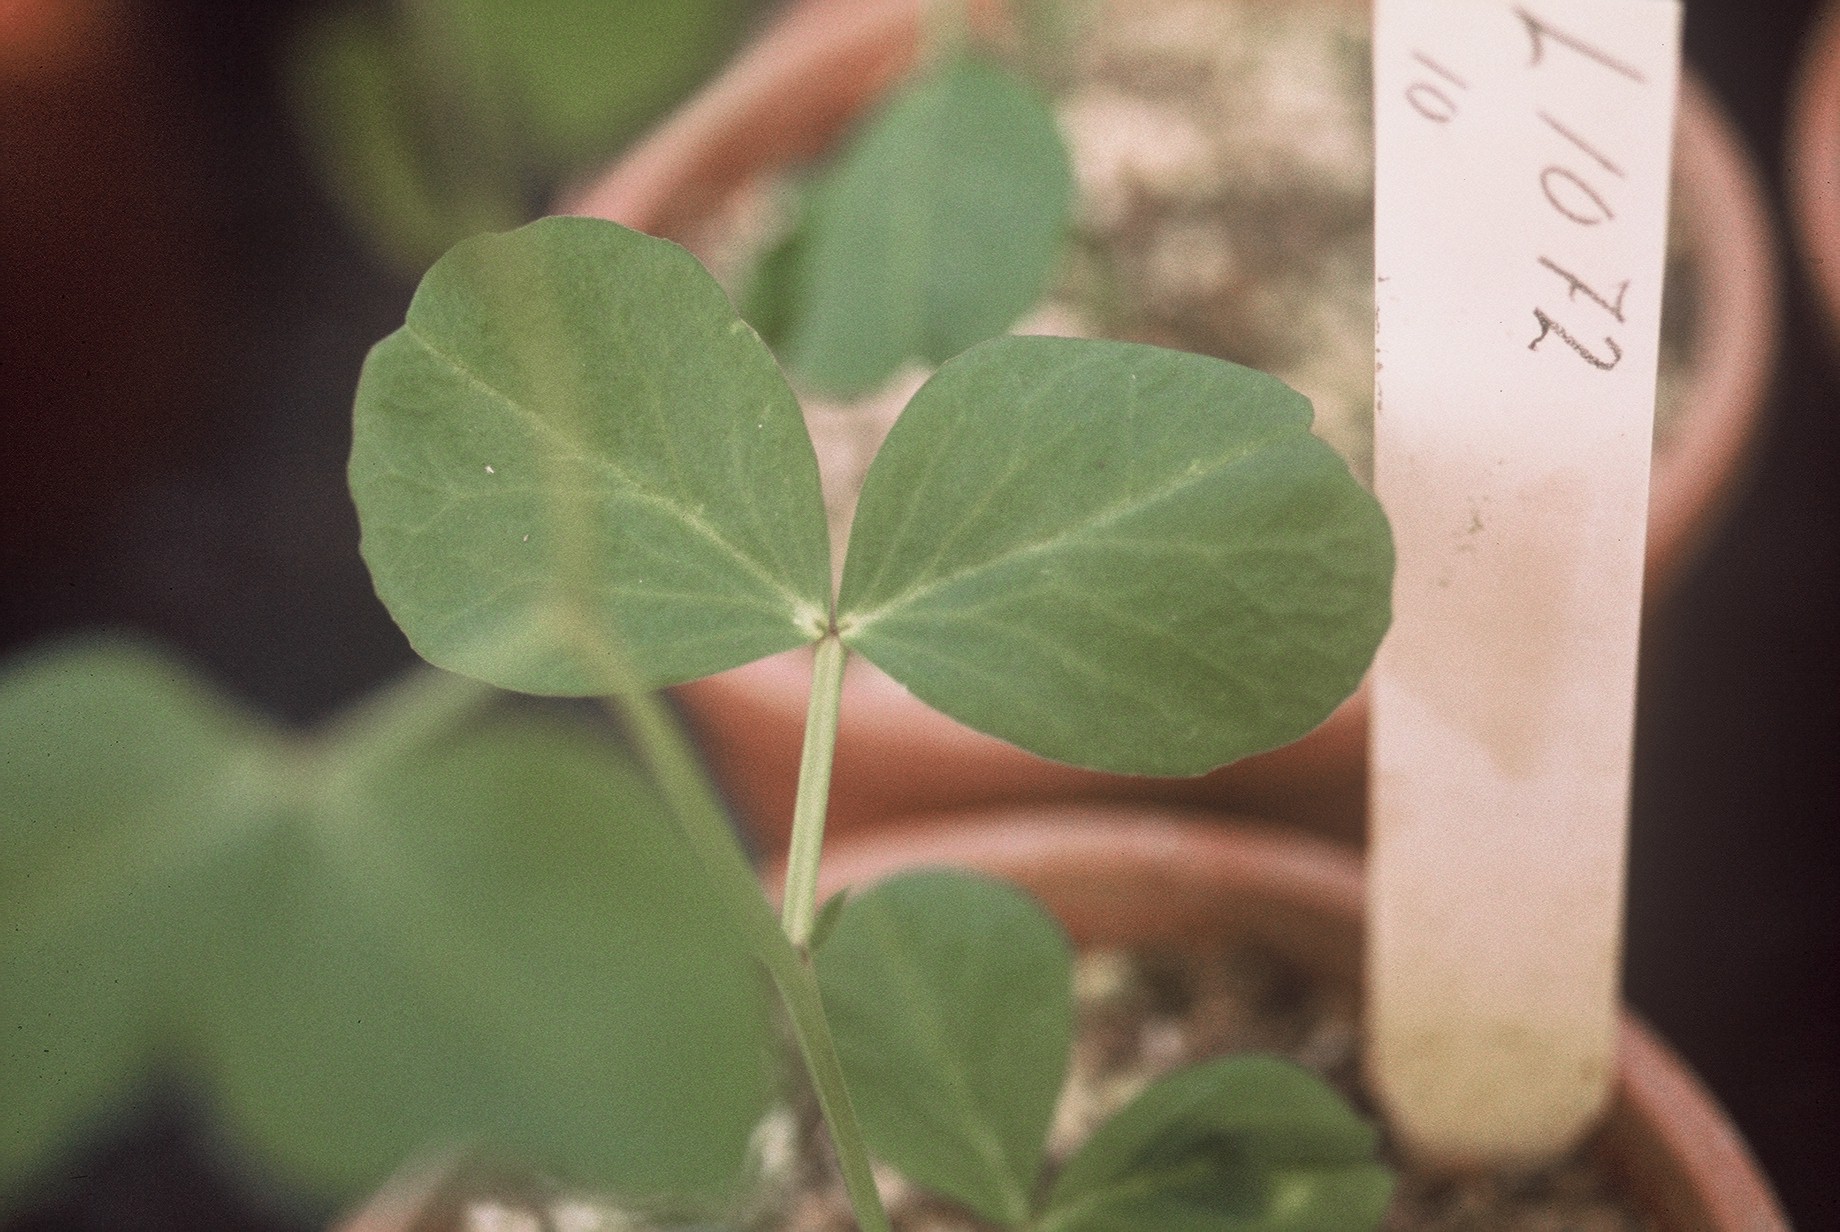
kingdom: Plantae
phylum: Tracheophyta
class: Magnoliopsida
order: Fabales
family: Fabaceae
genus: Lathyrus
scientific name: Lathyrus oleraceus
